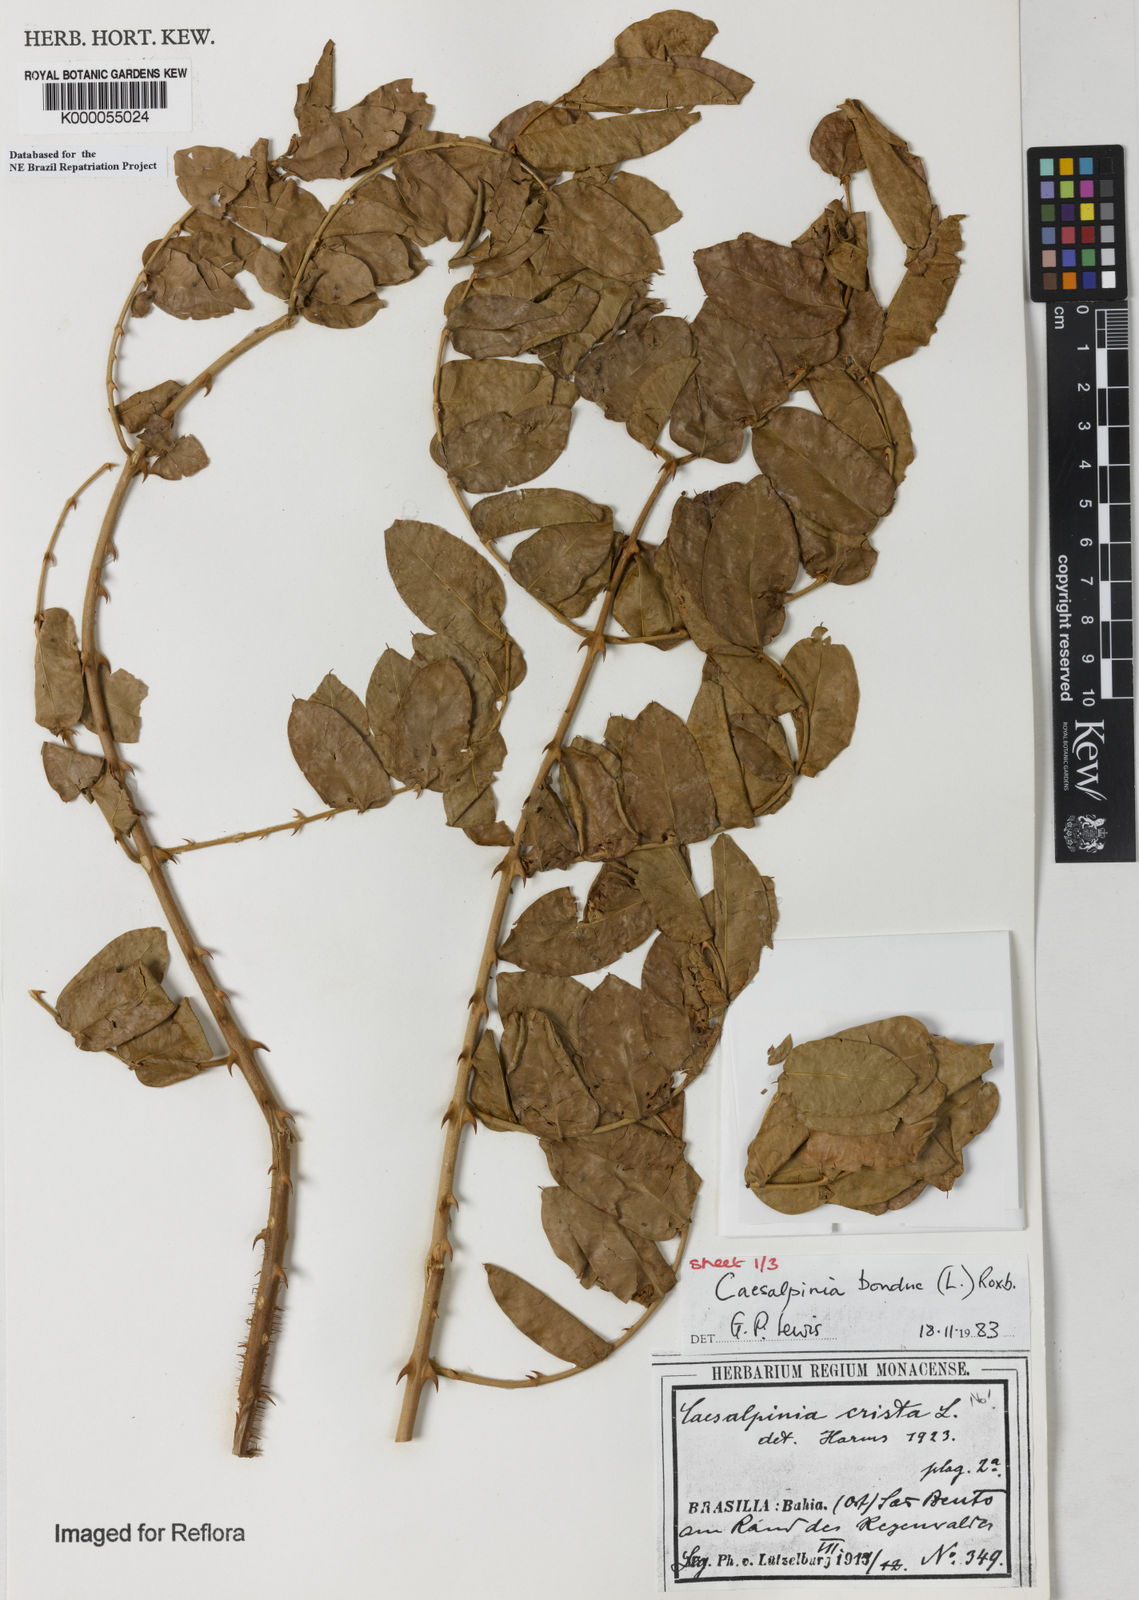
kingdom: Plantae
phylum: Tracheophyta
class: Magnoliopsida
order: Fabales
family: Fabaceae
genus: Guilandina
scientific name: Guilandina bonduc
